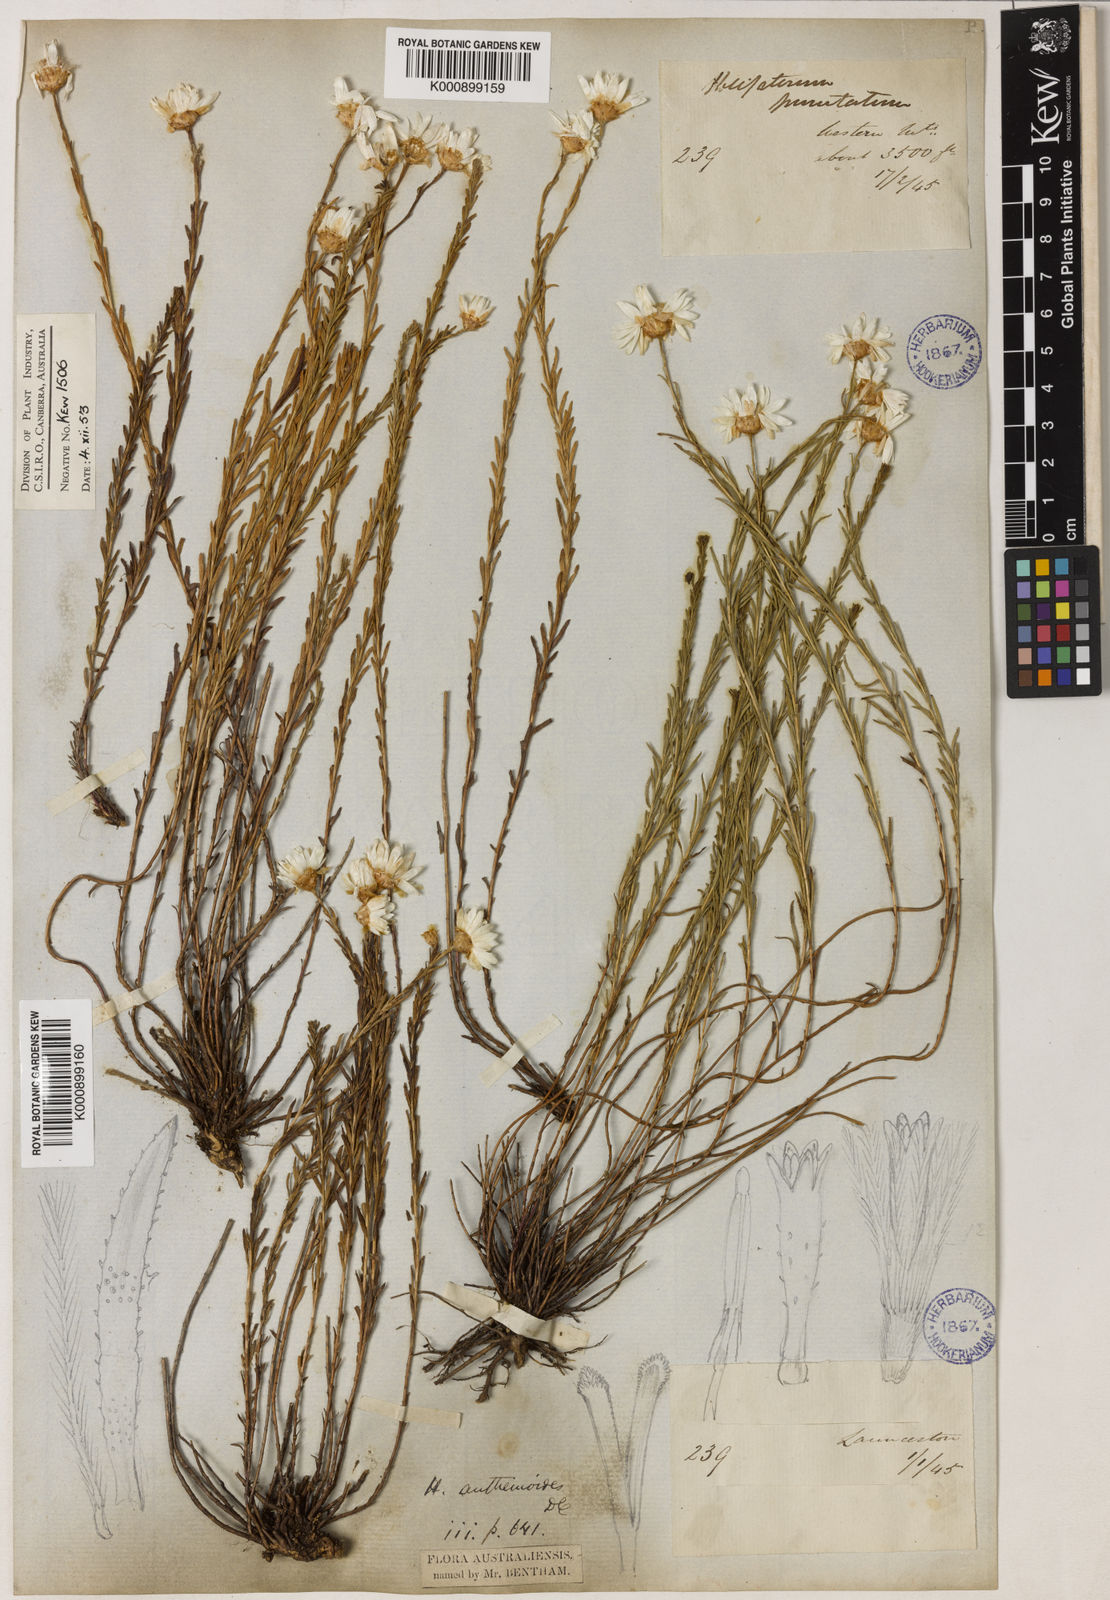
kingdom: Plantae
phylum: Tracheophyta
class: Magnoliopsida
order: Asterales
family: Asteraceae
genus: Rhodanthe
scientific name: Rhodanthe anthemoides
